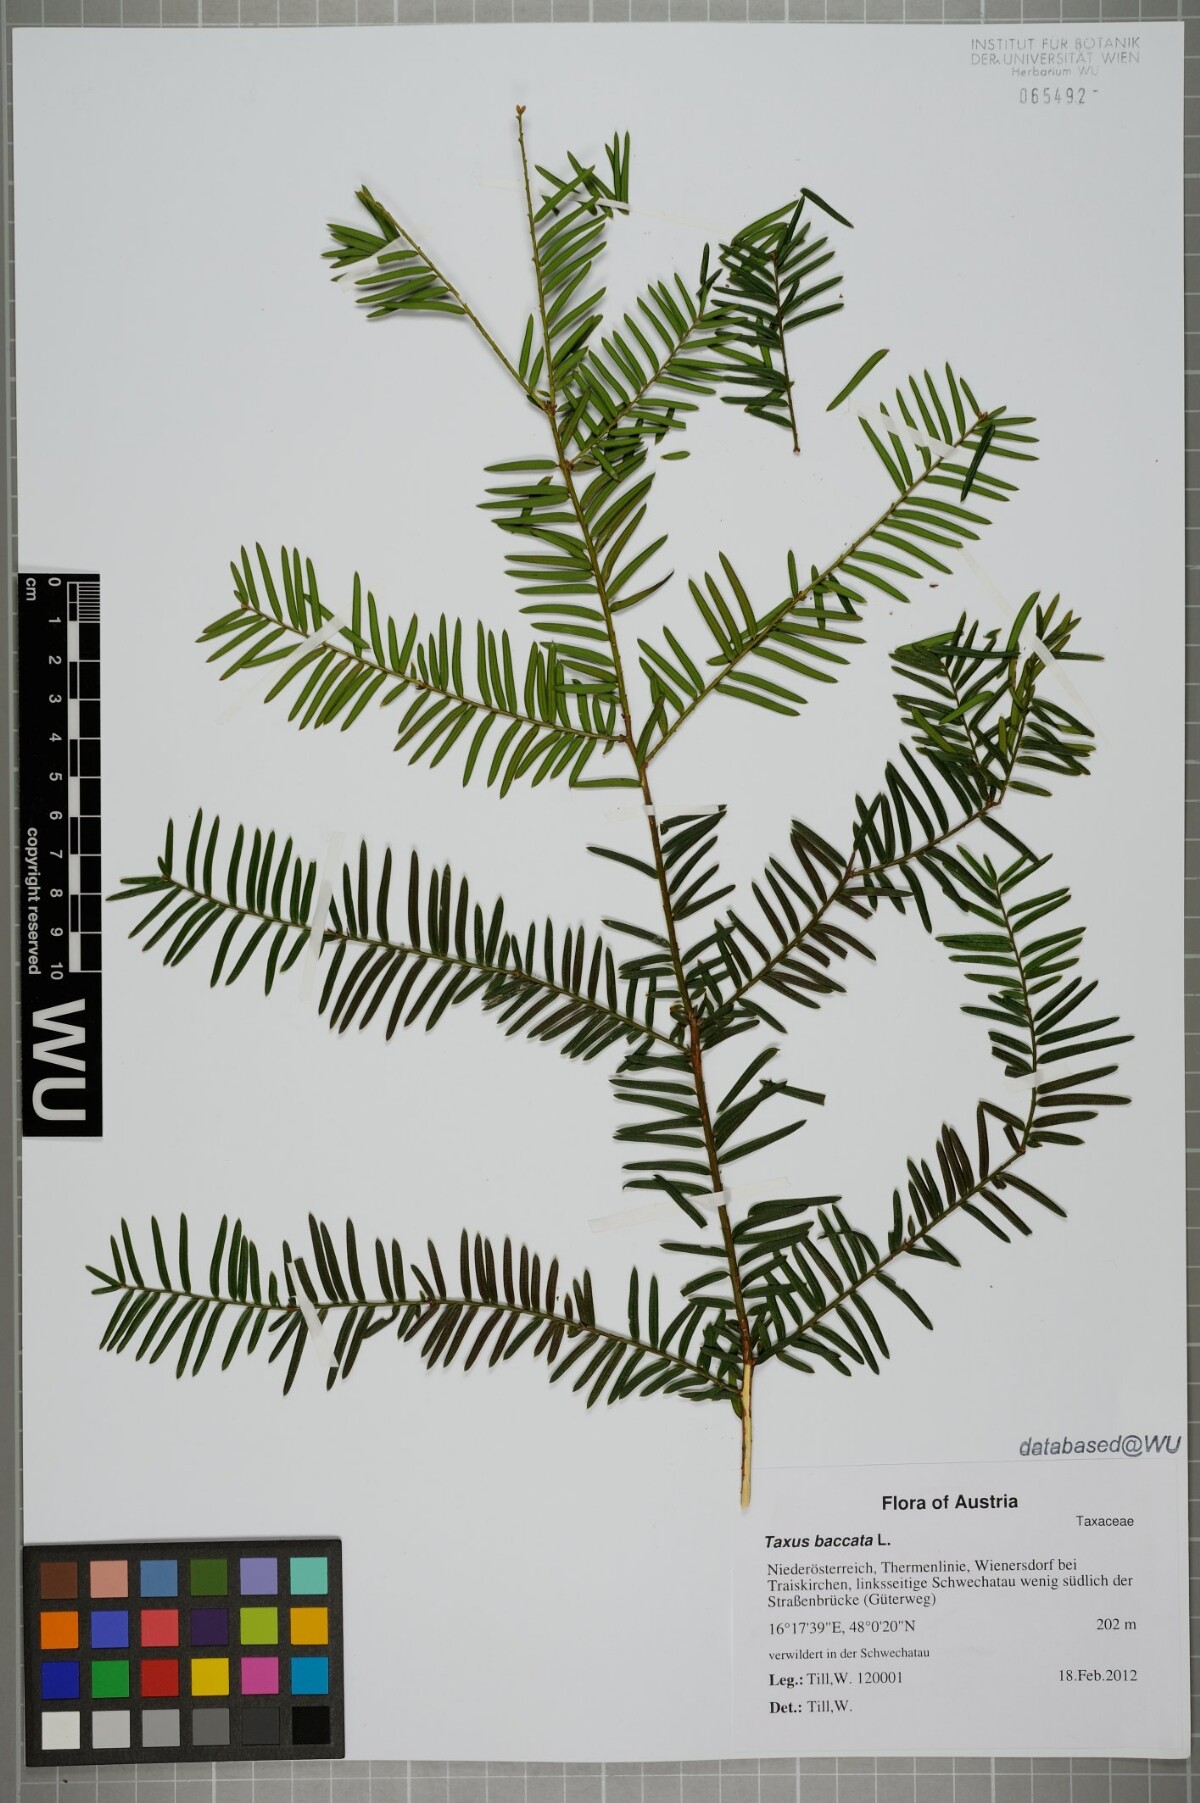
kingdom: Plantae
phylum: Tracheophyta
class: Pinopsida
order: Pinales
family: Taxaceae
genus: Taxus
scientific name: Taxus baccata
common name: Yew
